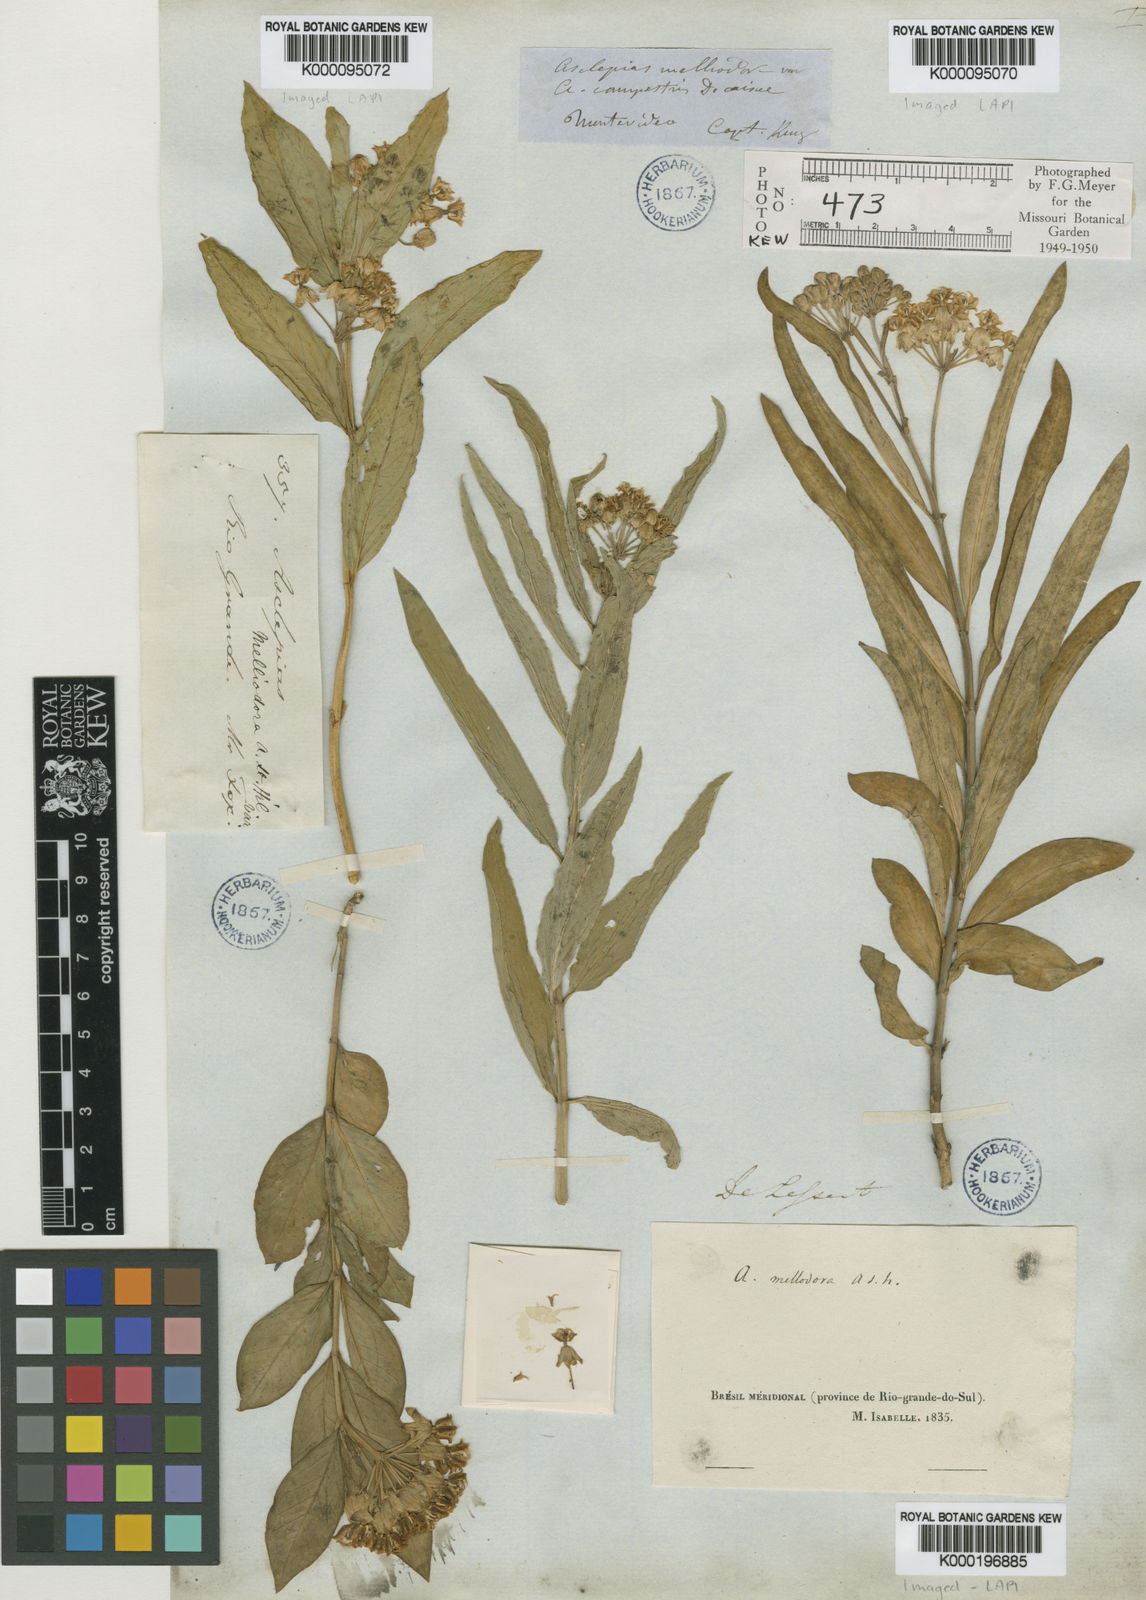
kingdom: Plantae
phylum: Tracheophyta
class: Magnoliopsida
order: Gentianales
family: Apocynaceae
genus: Asclepias
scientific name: Asclepias mellodora
